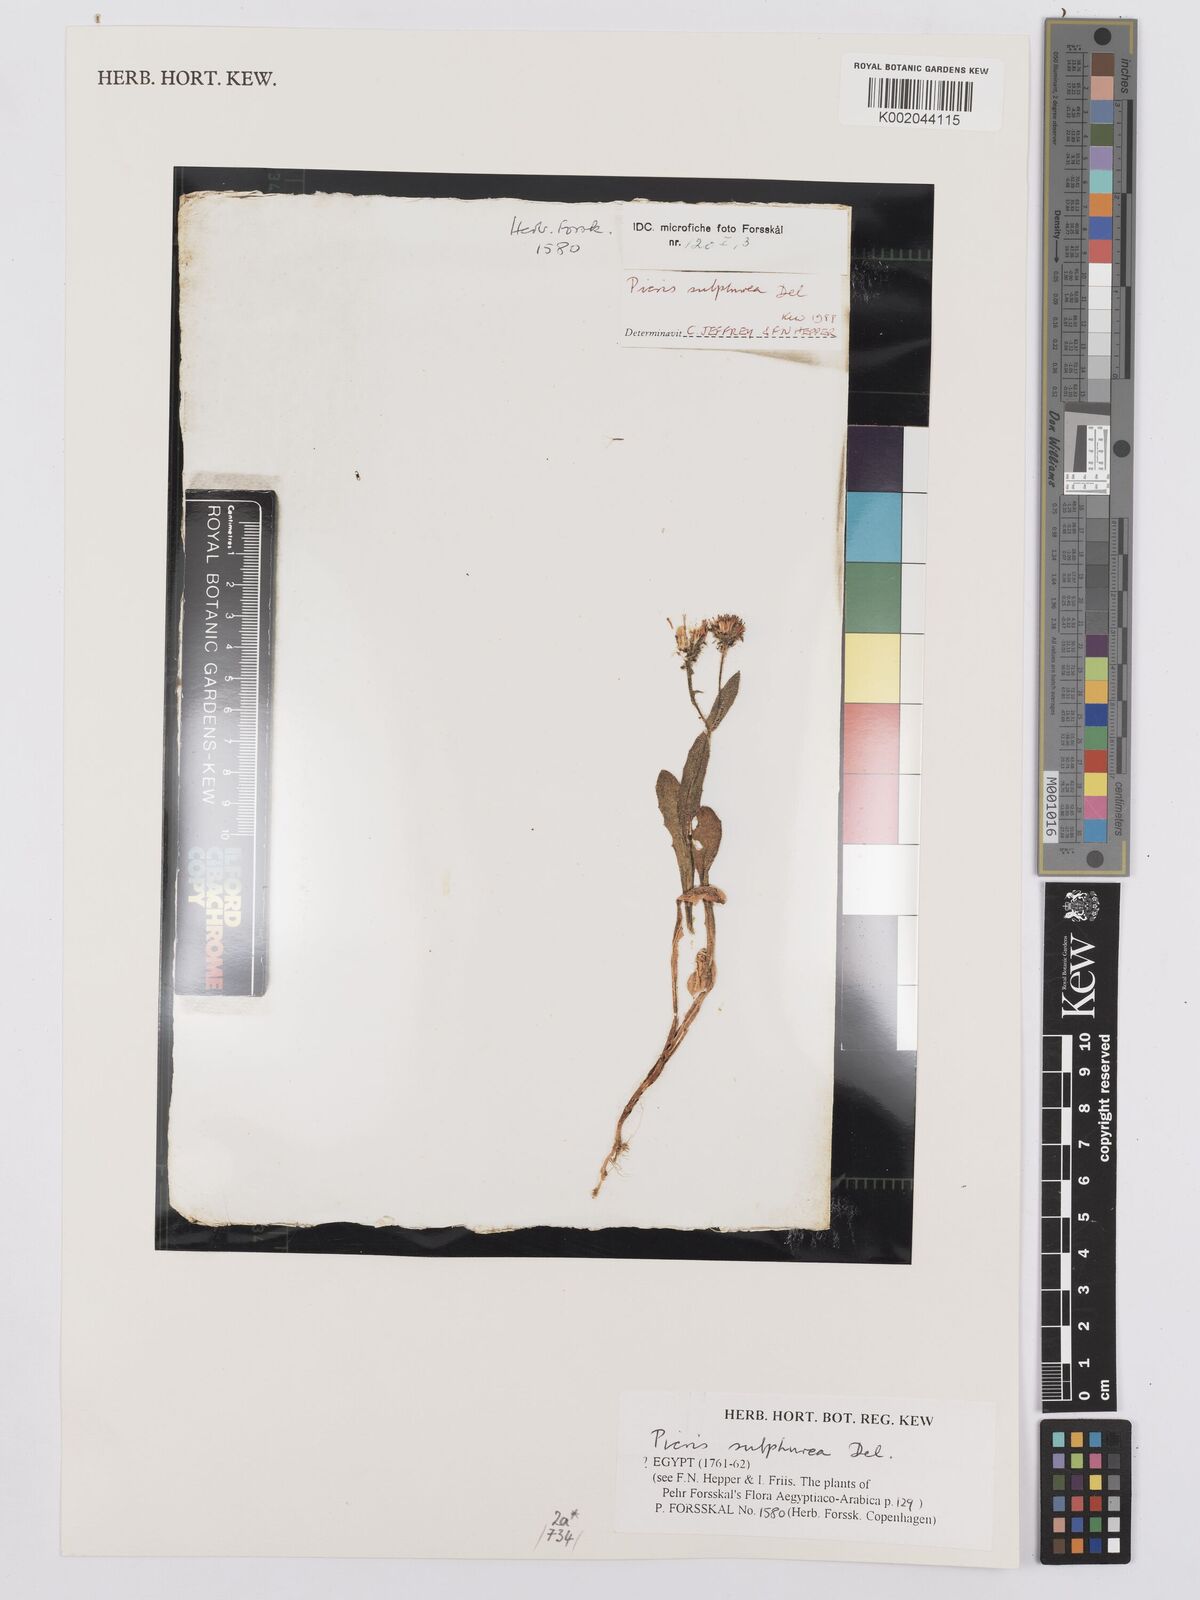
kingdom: Plantae
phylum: Tracheophyta
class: Magnoliopsida
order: Asterales
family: Asteraceae
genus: Picris
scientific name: Picris sulphurea
